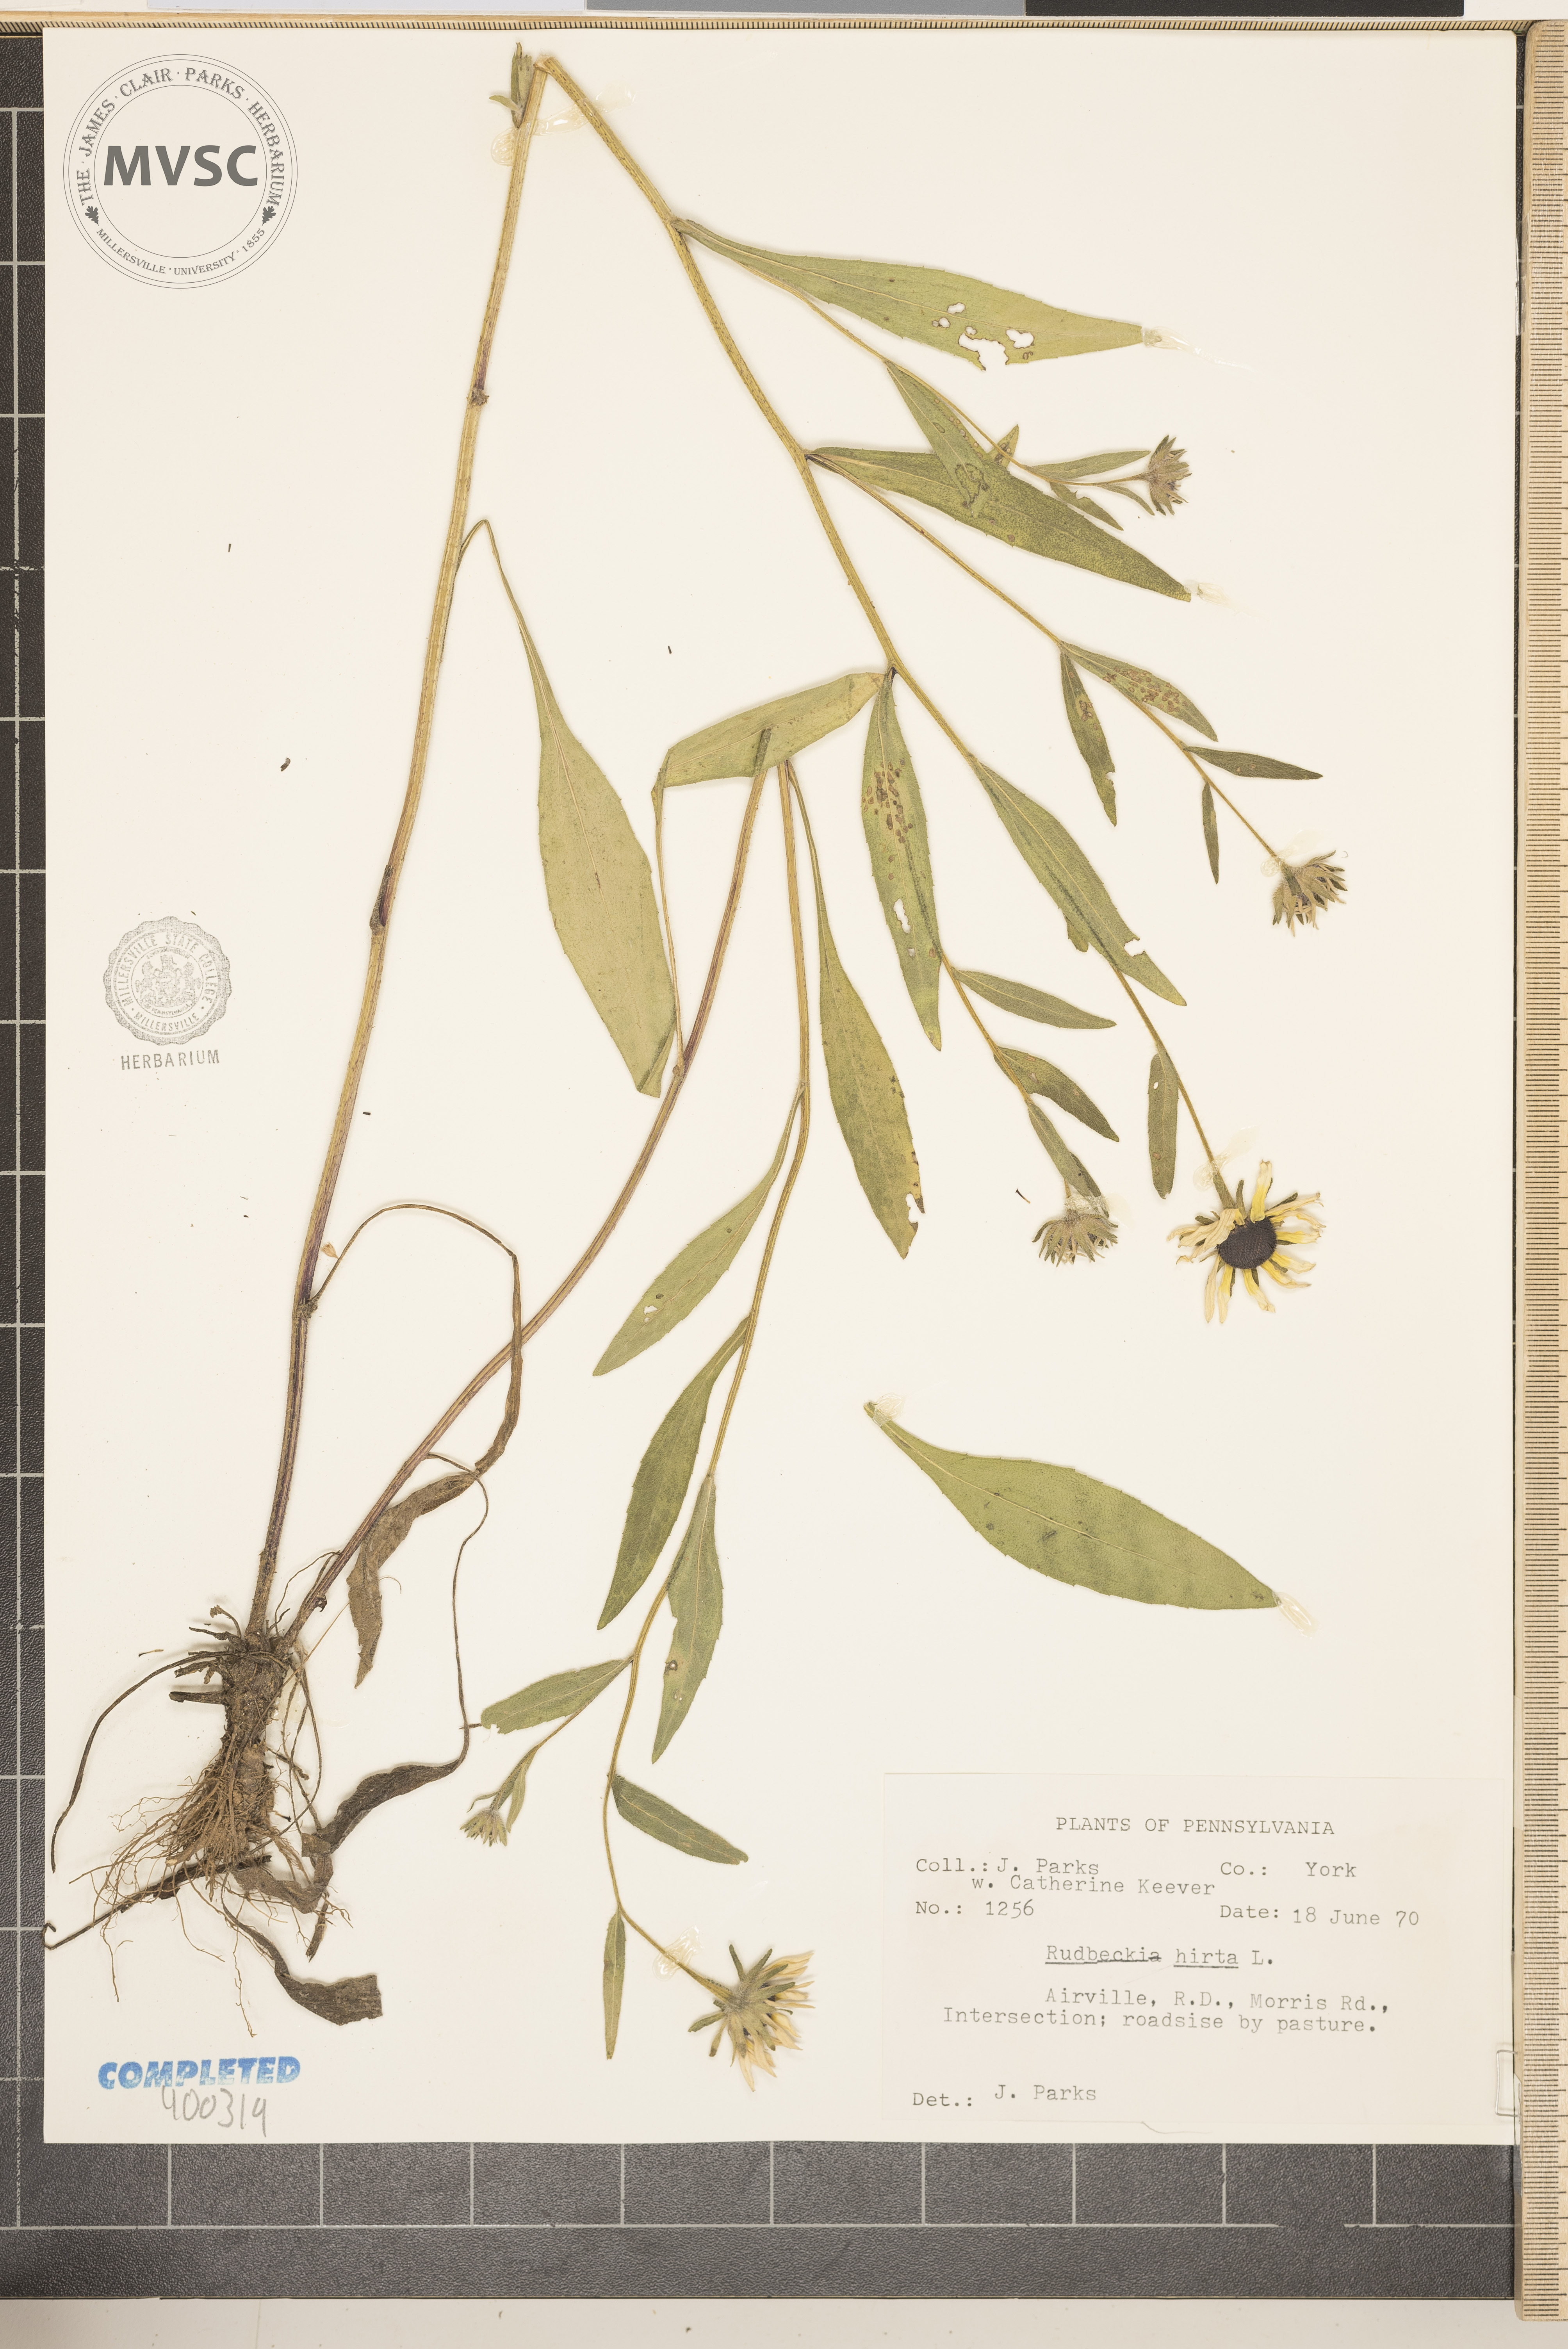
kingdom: Plantae
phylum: Tracheophyta
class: Magnoliopsida
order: Asterales
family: Asteraceae
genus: Rudbeckia
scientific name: Rudbeckia hirta
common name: black-eyed Susan
